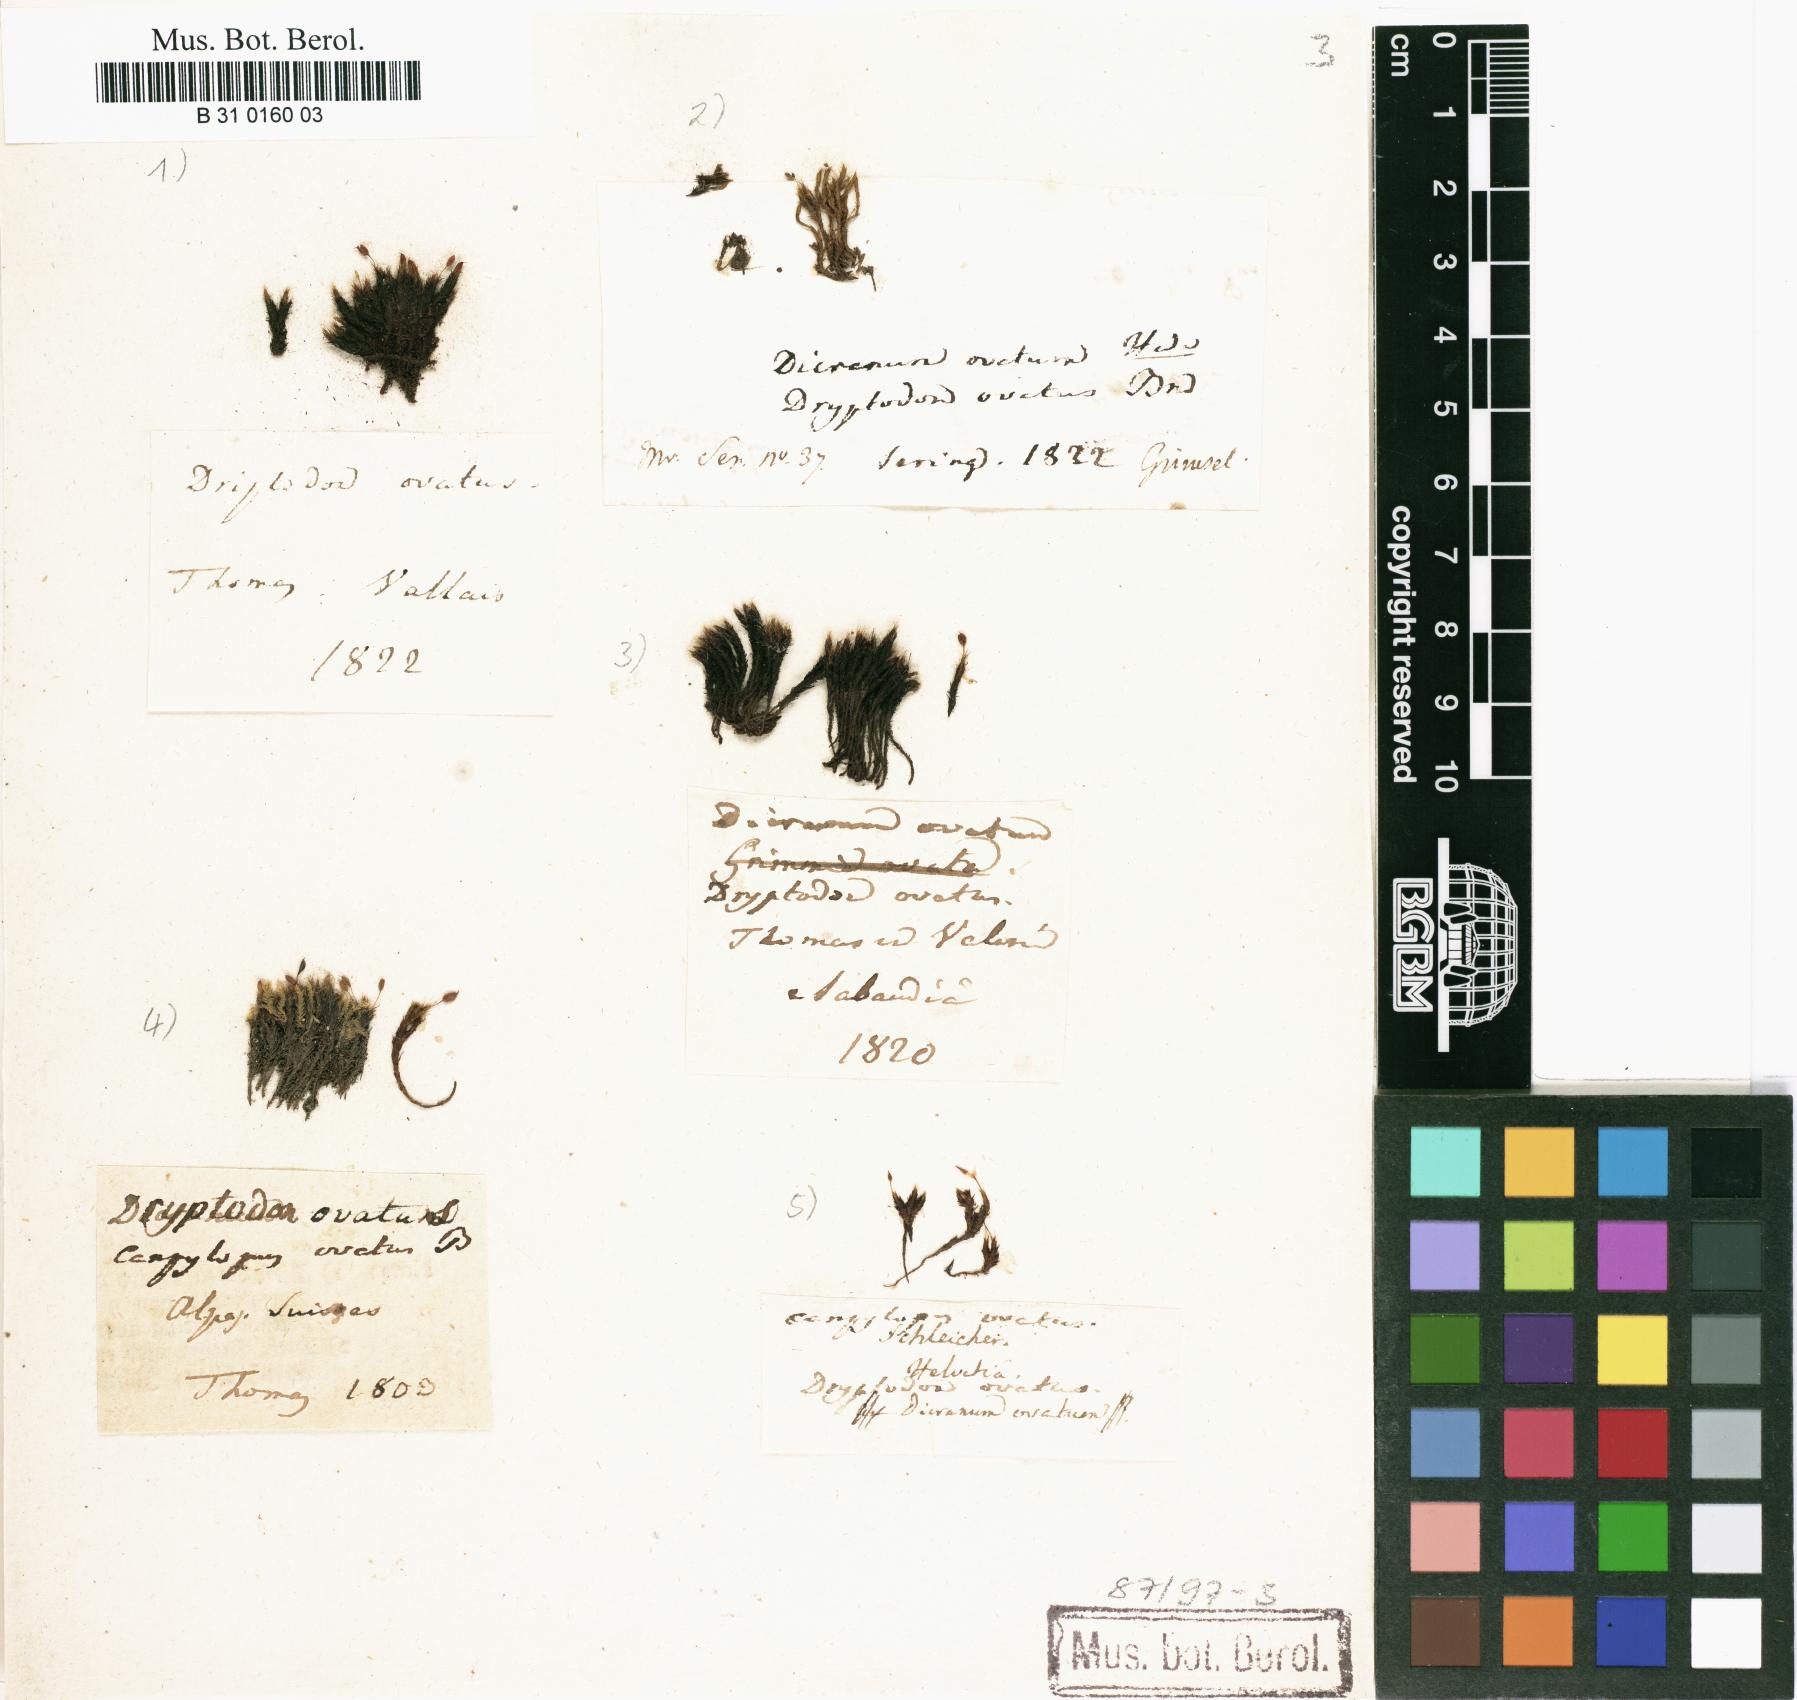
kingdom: Plantae
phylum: Bryophyta
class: Bryopsida
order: Grimmiales
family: Grimmiaceae
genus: Grimmia
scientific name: Grimmia ovalis
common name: Oval grimmia
